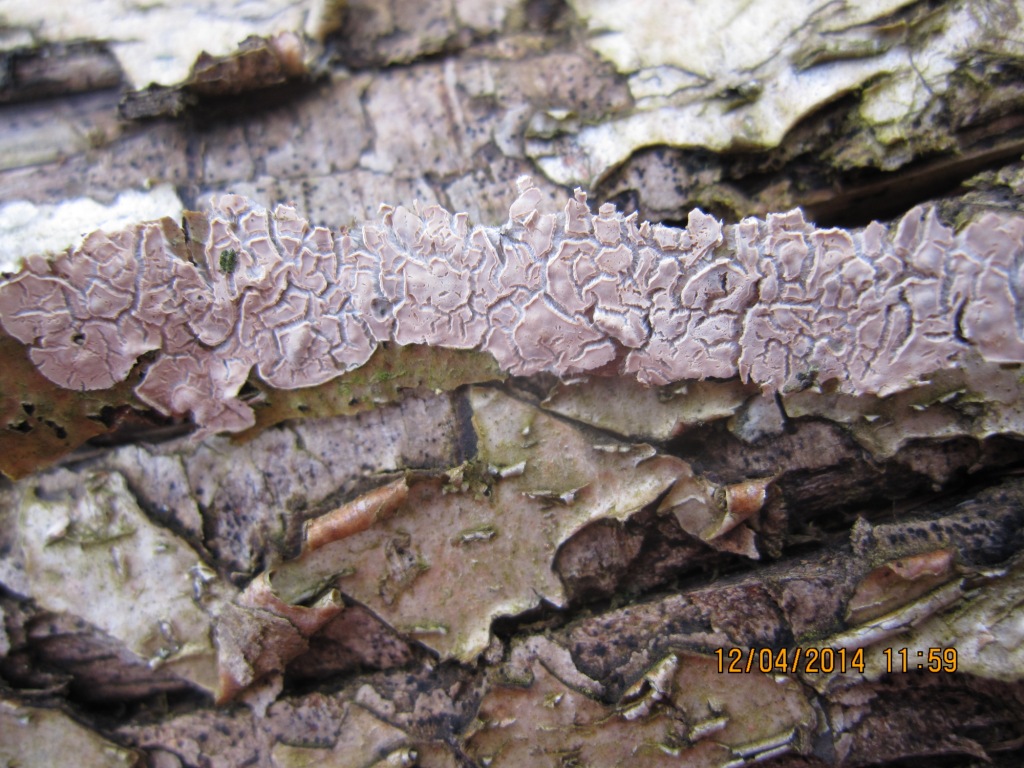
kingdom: Fungi
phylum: Basidiomycota
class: Agaricomycetes
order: Agaricales
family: Physalacriaceae
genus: Cylindrobasidium
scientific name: Cylindrobasidium evolvens
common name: sprækkehinde
